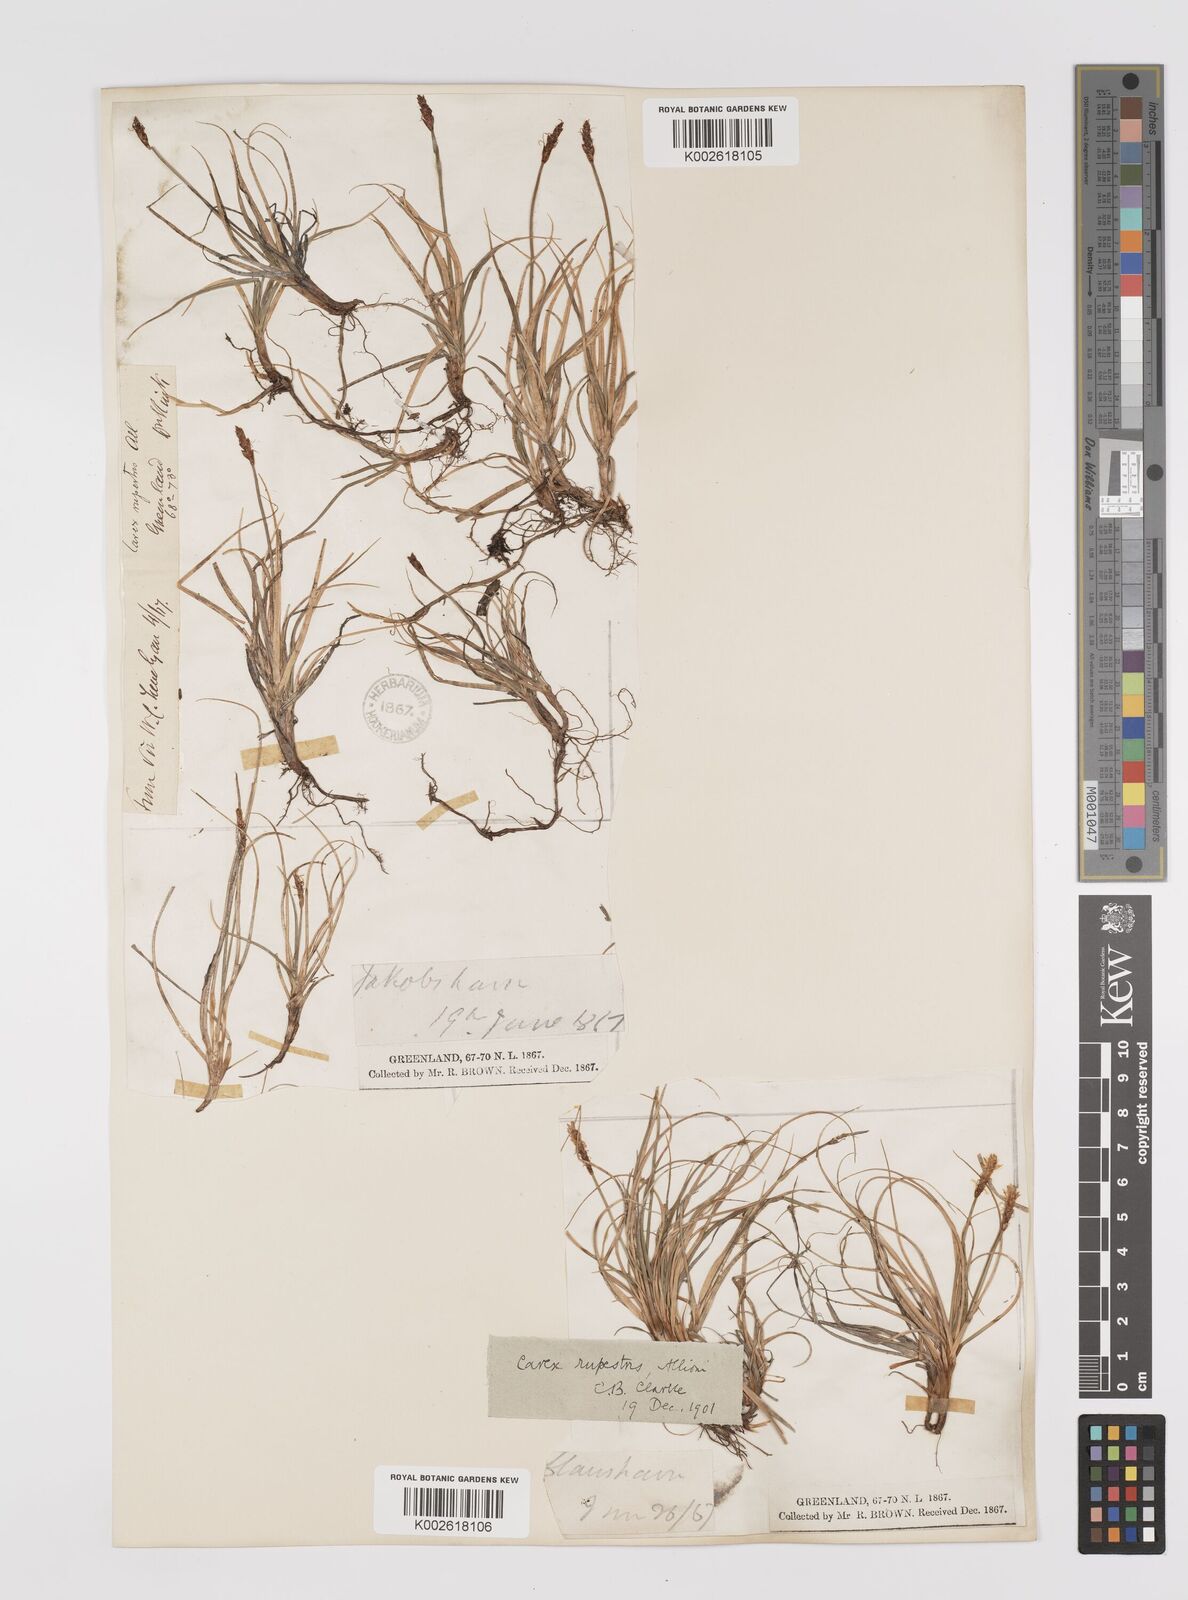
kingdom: Plantae
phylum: Tracheophyta
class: Liliopsida
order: Poales
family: Cyperaceae
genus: Carex
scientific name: Carex rupestris
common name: Rock sedge
